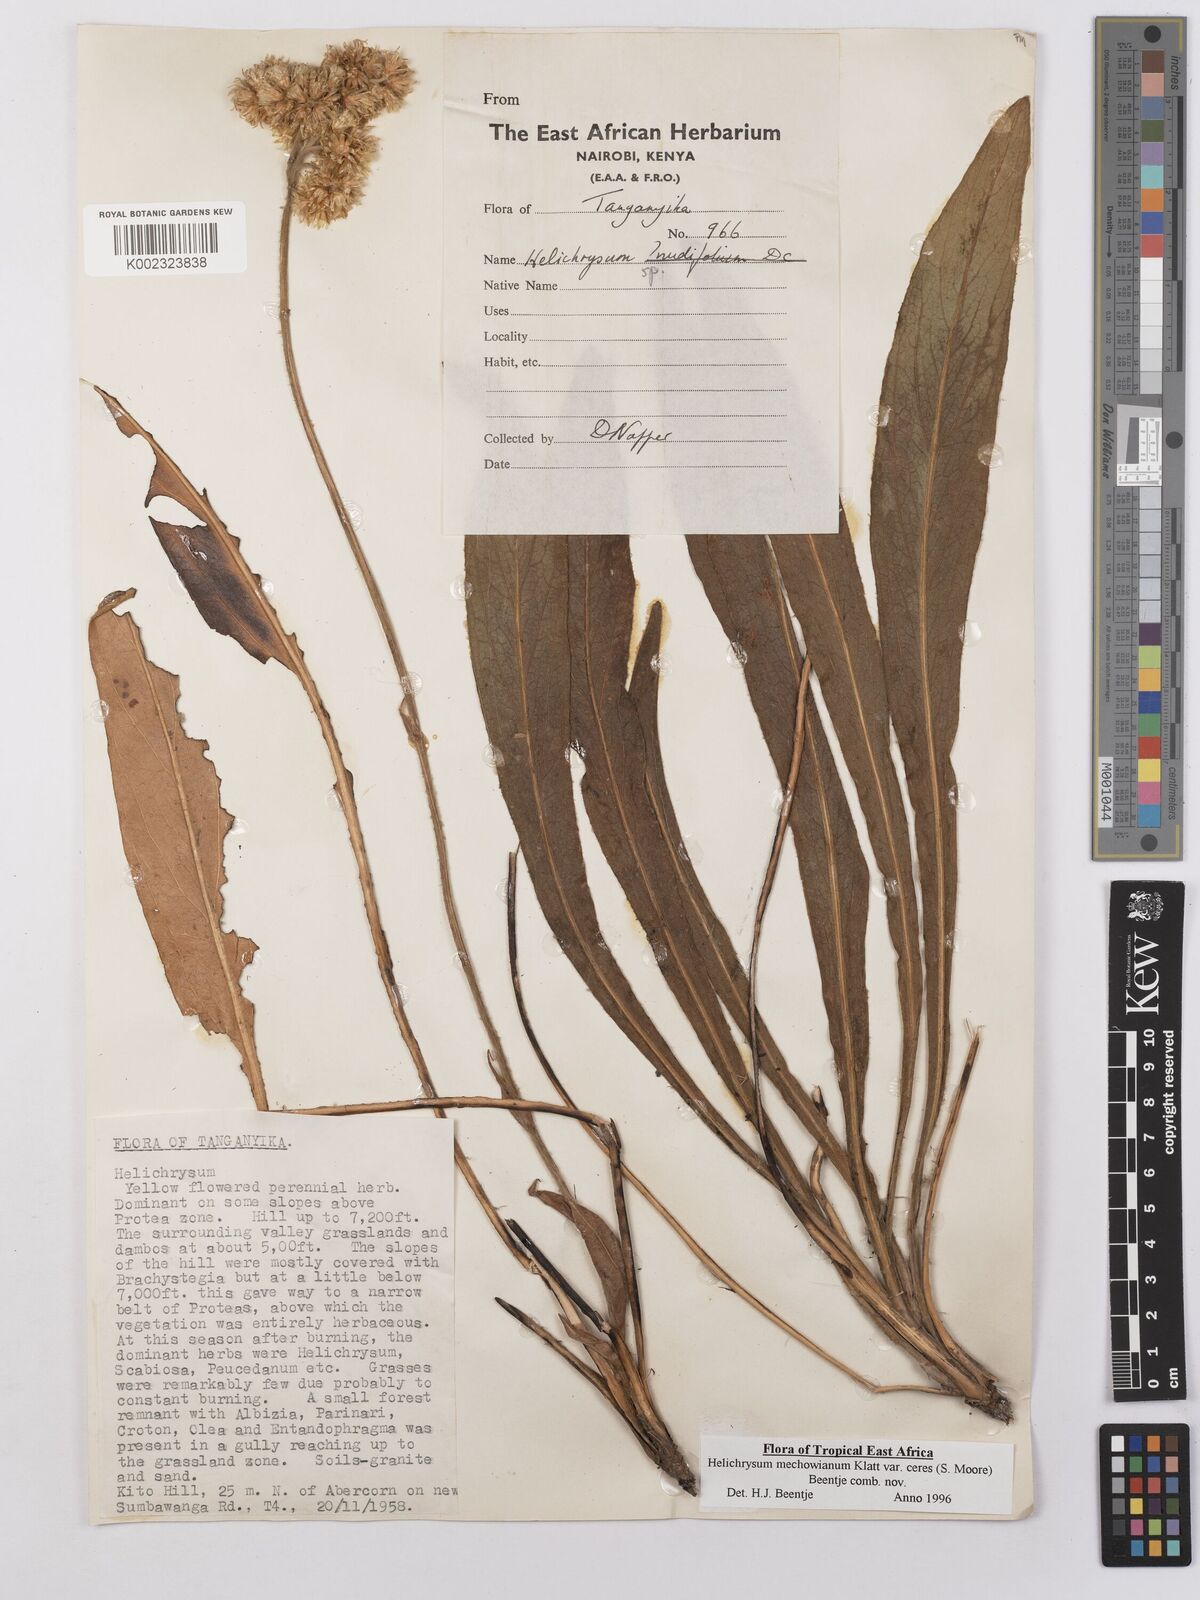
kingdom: Plantae
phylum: Tracheophyta
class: Magnoliopsida
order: Asterales
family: Asteraceae
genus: Helichrysum
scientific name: Helichrysum mechowianum
